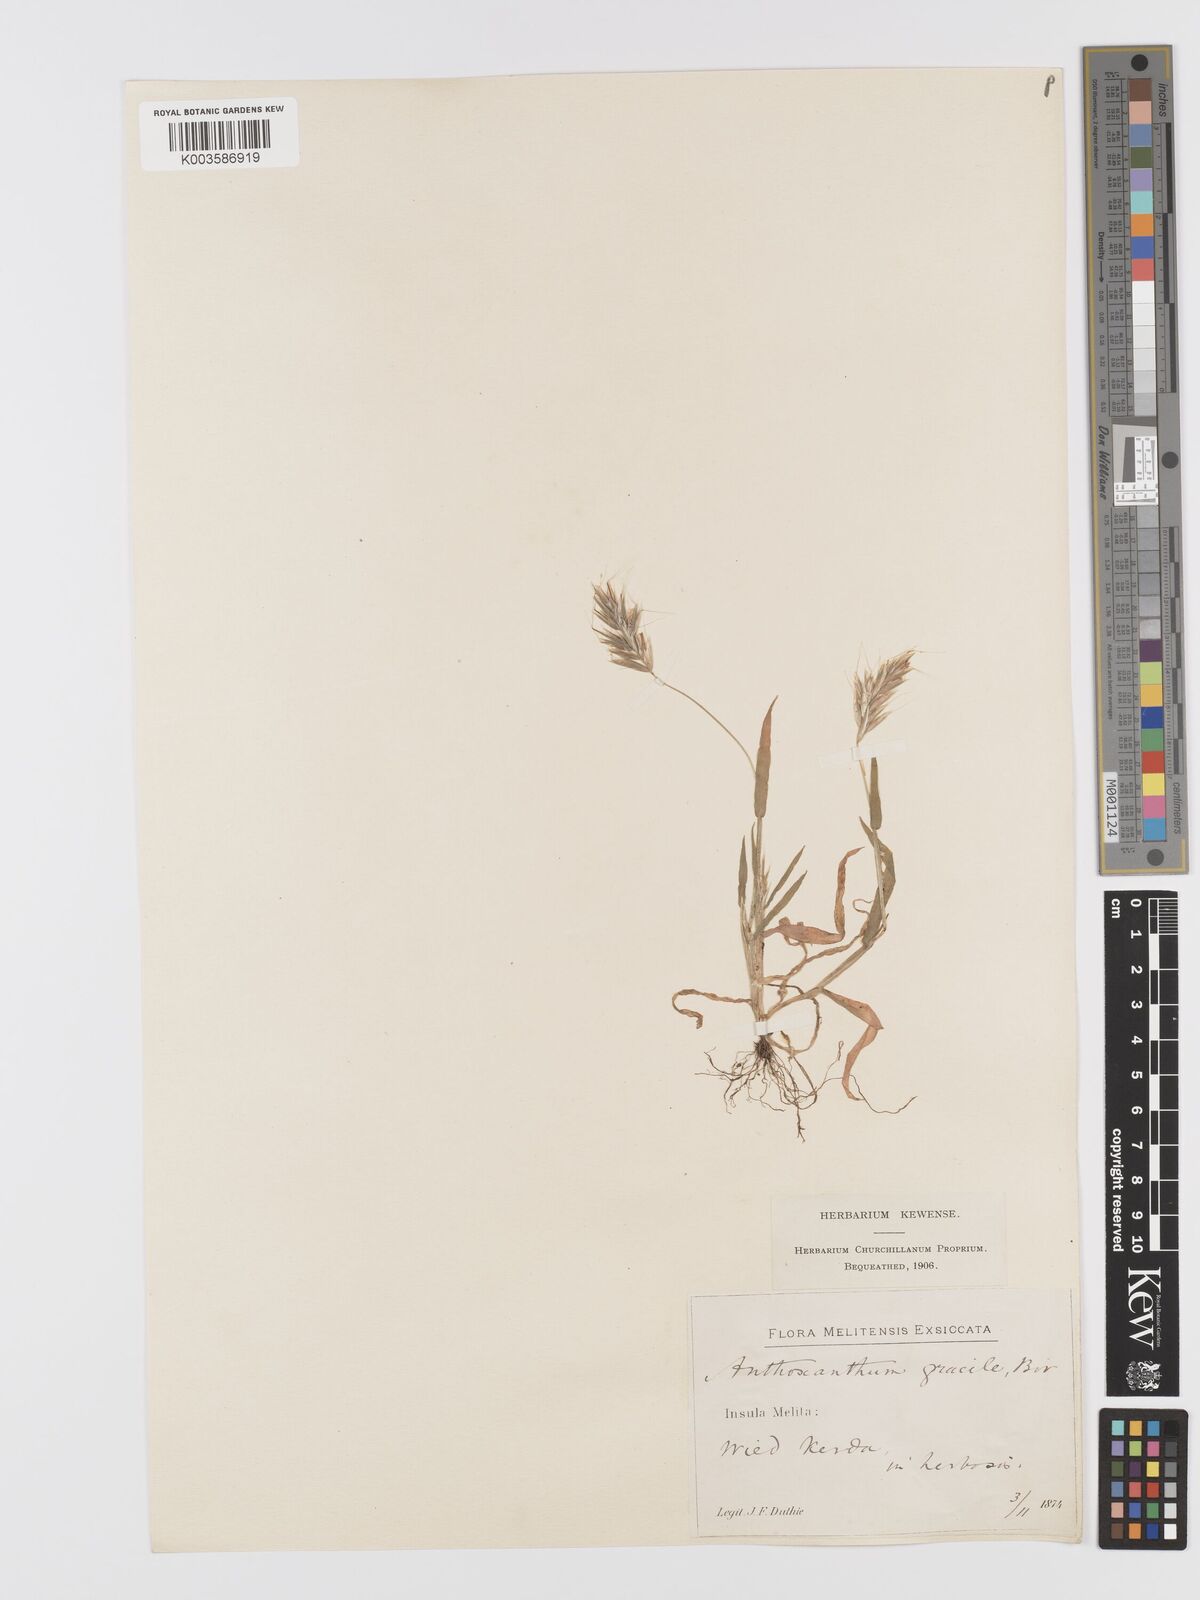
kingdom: Plantae
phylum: Tracheophyta
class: Liliopsida
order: Poales
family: Poaceae
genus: Anthoxanthum
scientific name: Anthoxanthum gracile
